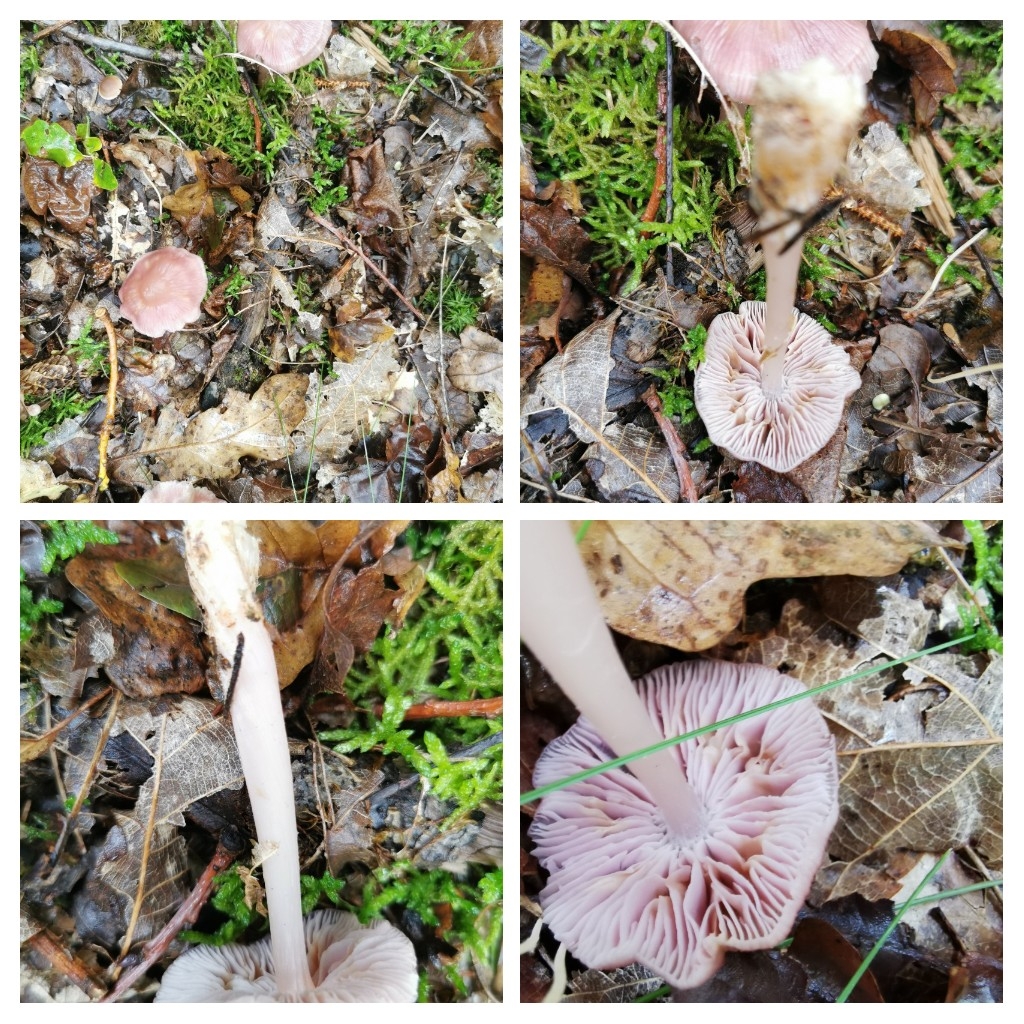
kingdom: Fungi
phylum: Basidiomycota
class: Agaricomycetes
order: Agaricales
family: Mycenaceae
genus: Mycena
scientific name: Mycena rosea
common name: rosa huesvamp
